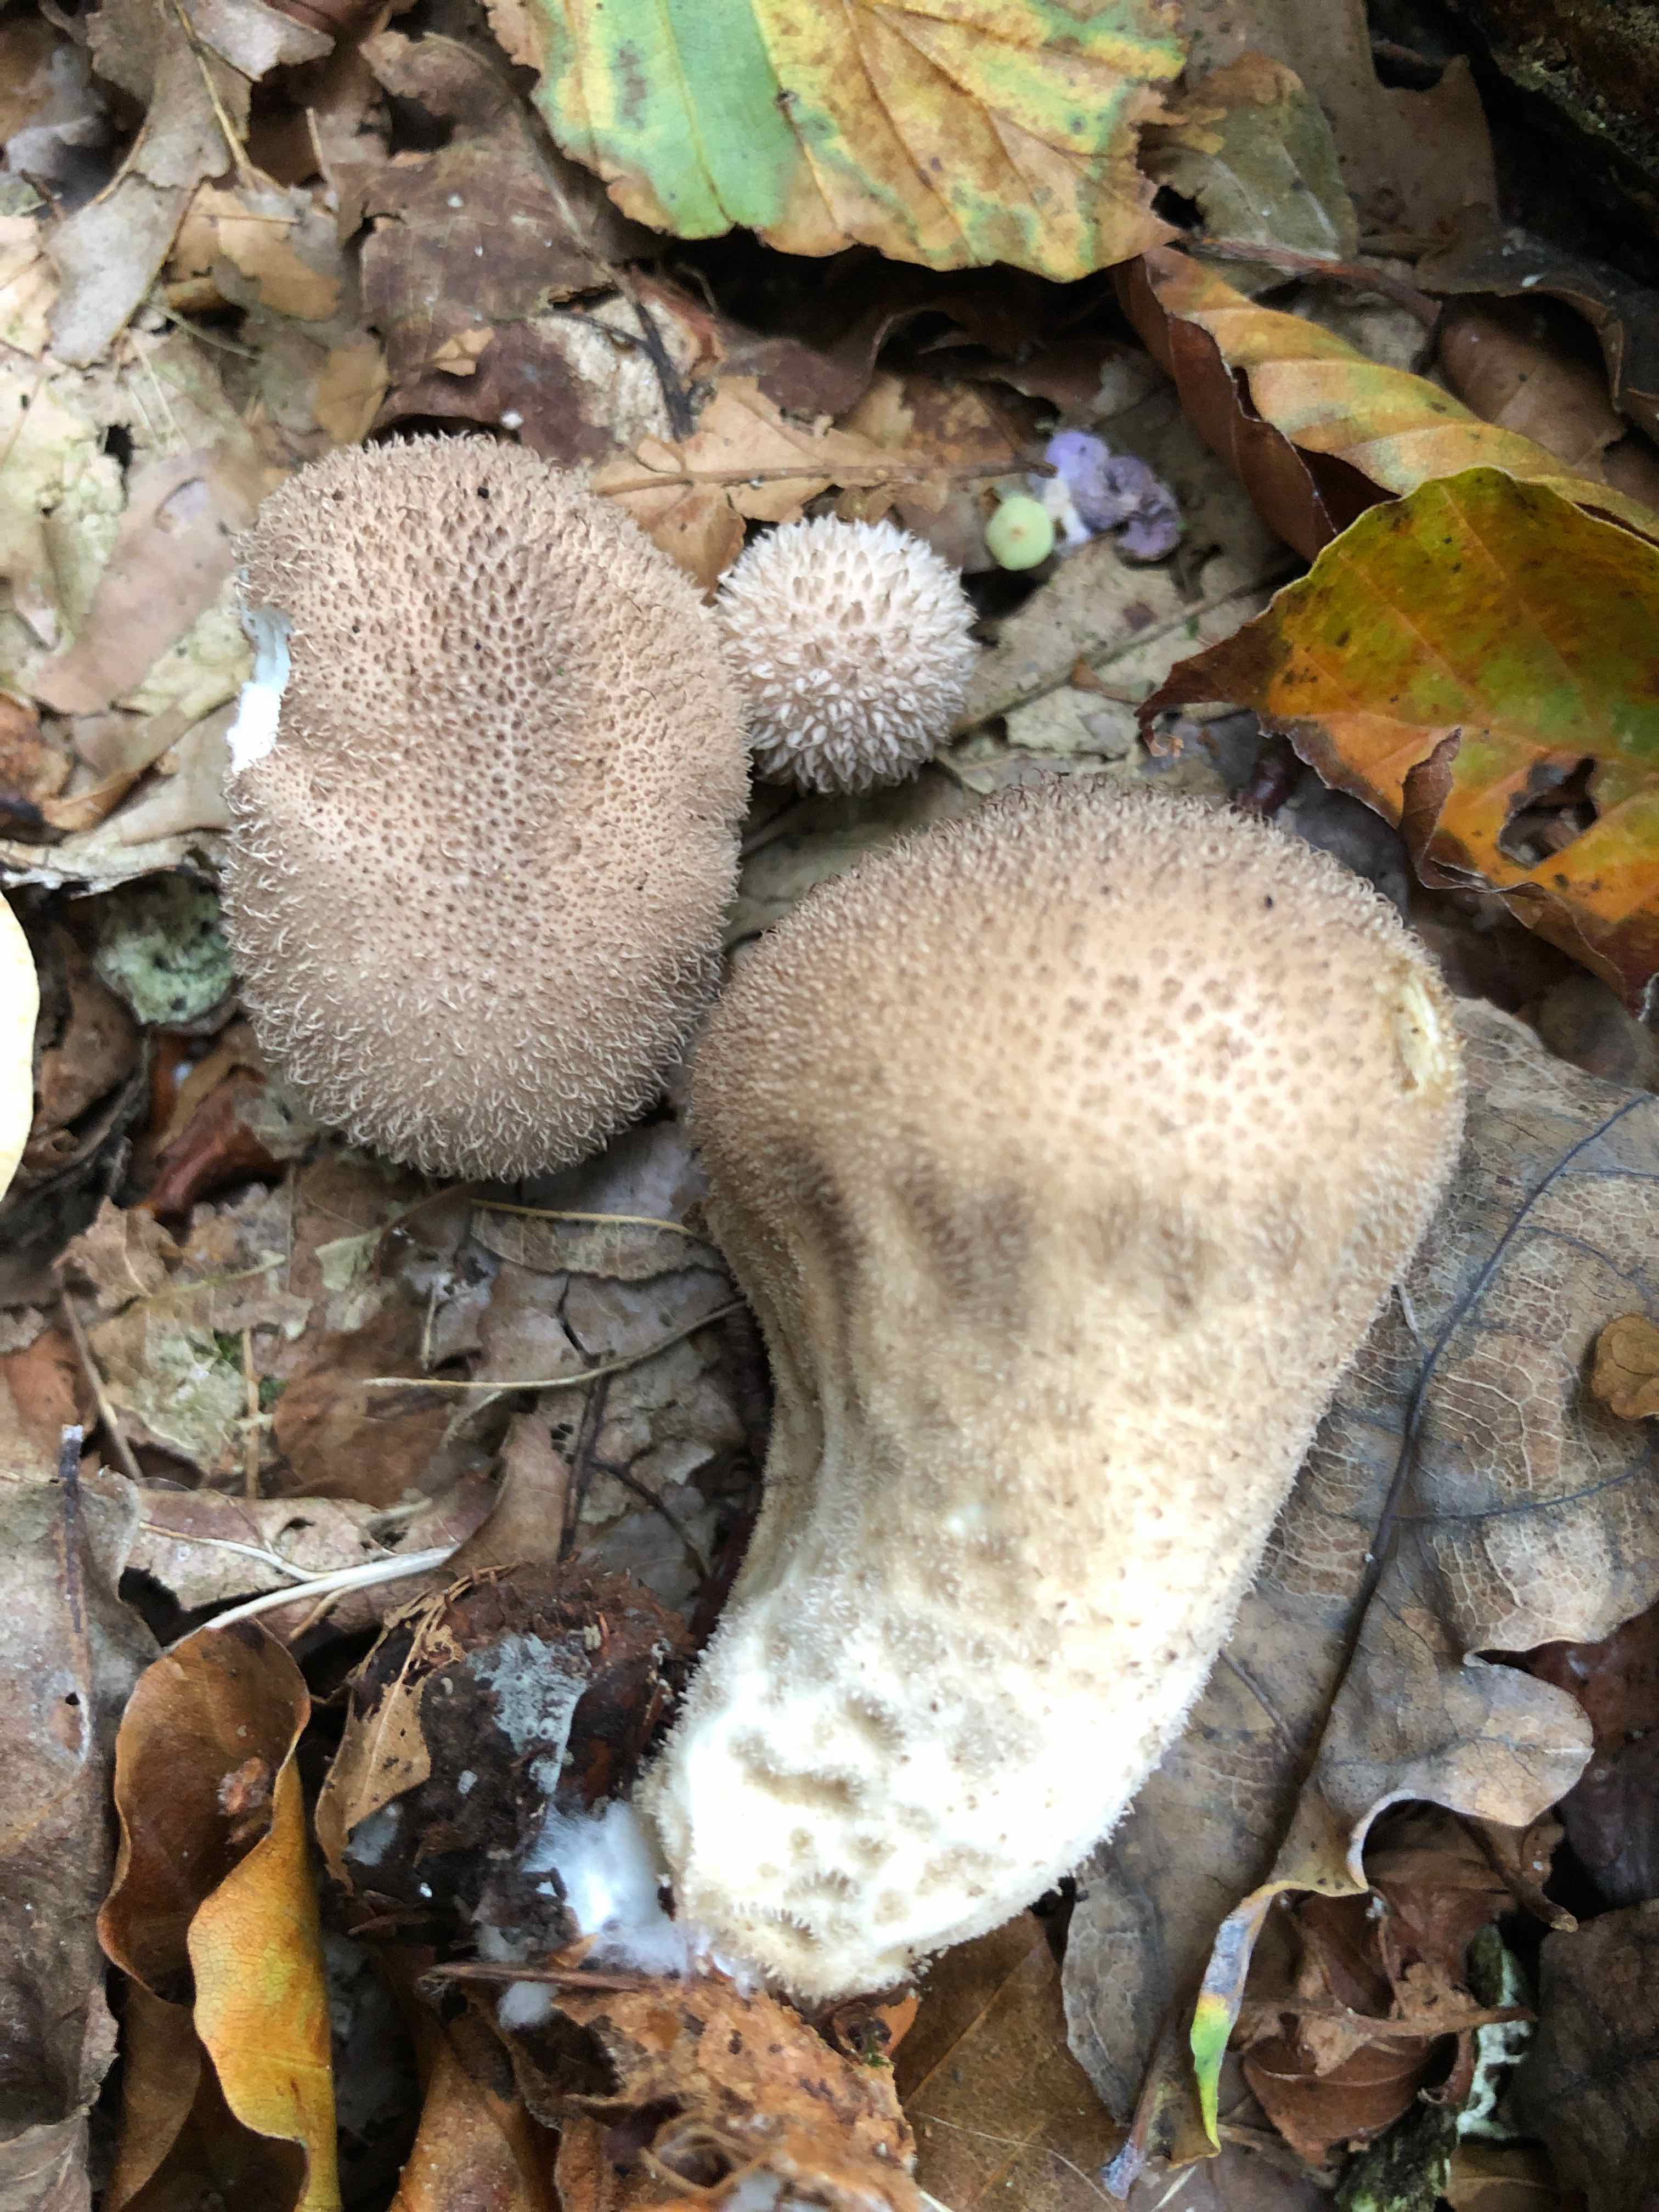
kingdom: Fungi
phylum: Basidiomycota
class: Agaricomycetes
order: Agaricales
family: Agaricaceae
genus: Lycoperdon
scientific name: Lycoperdon
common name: støvbold
